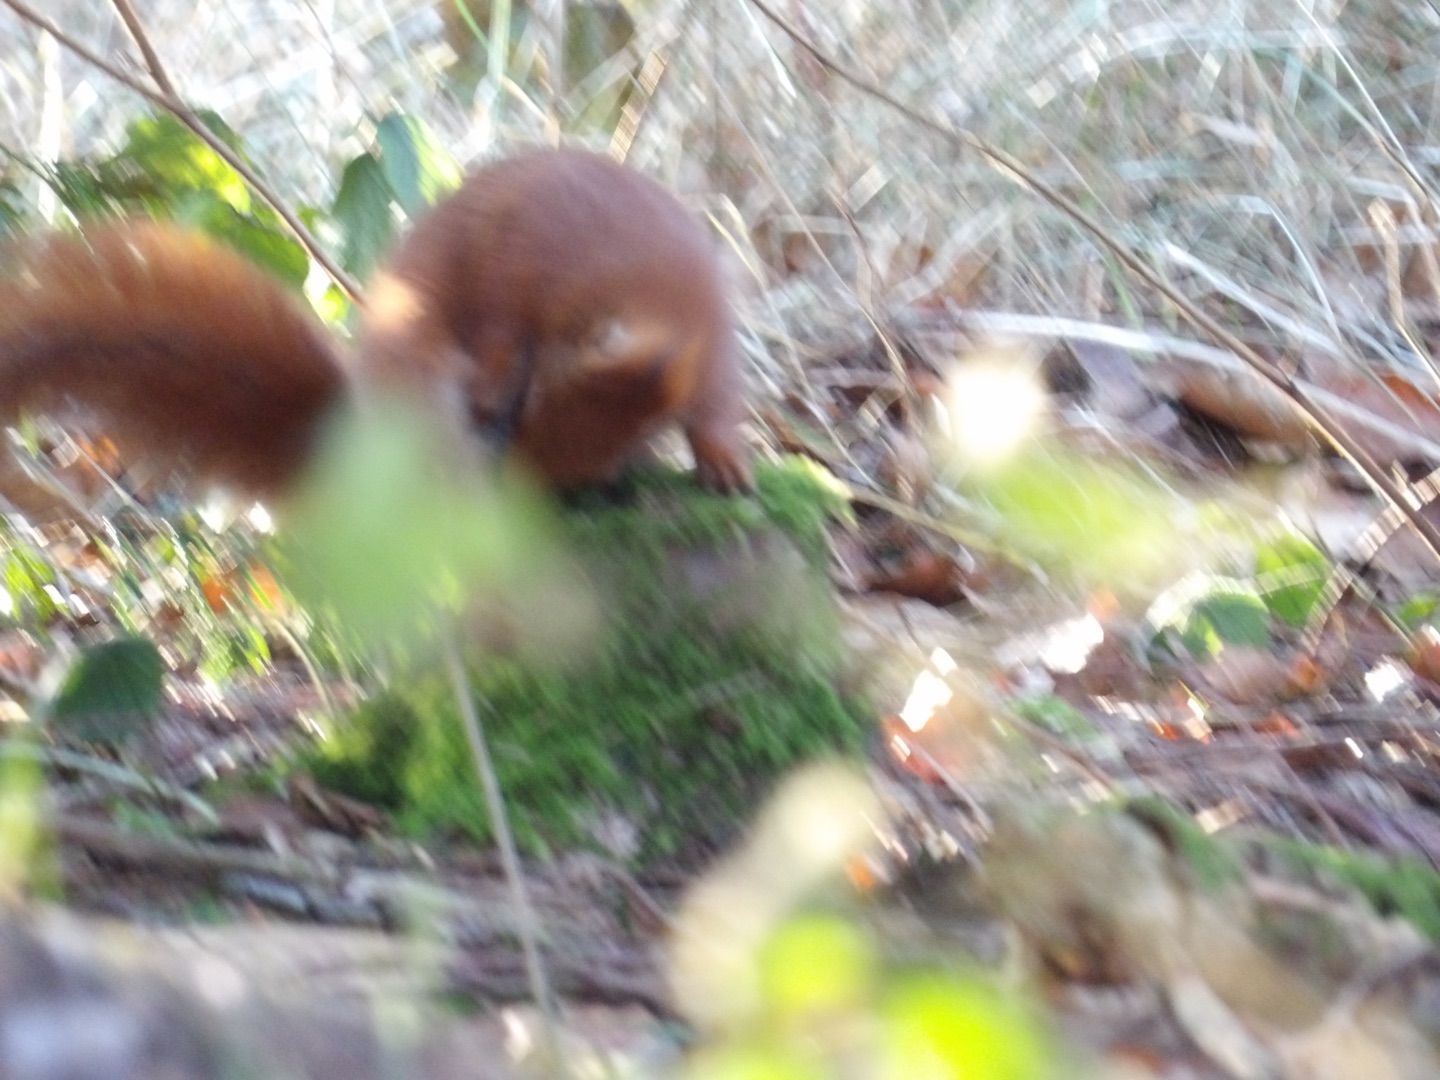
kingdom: Animalia
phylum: Chordata
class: Mammalia
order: Rodentia
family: Sciuridae
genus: Sciurus
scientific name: Sciurus vulgaris
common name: Egern
